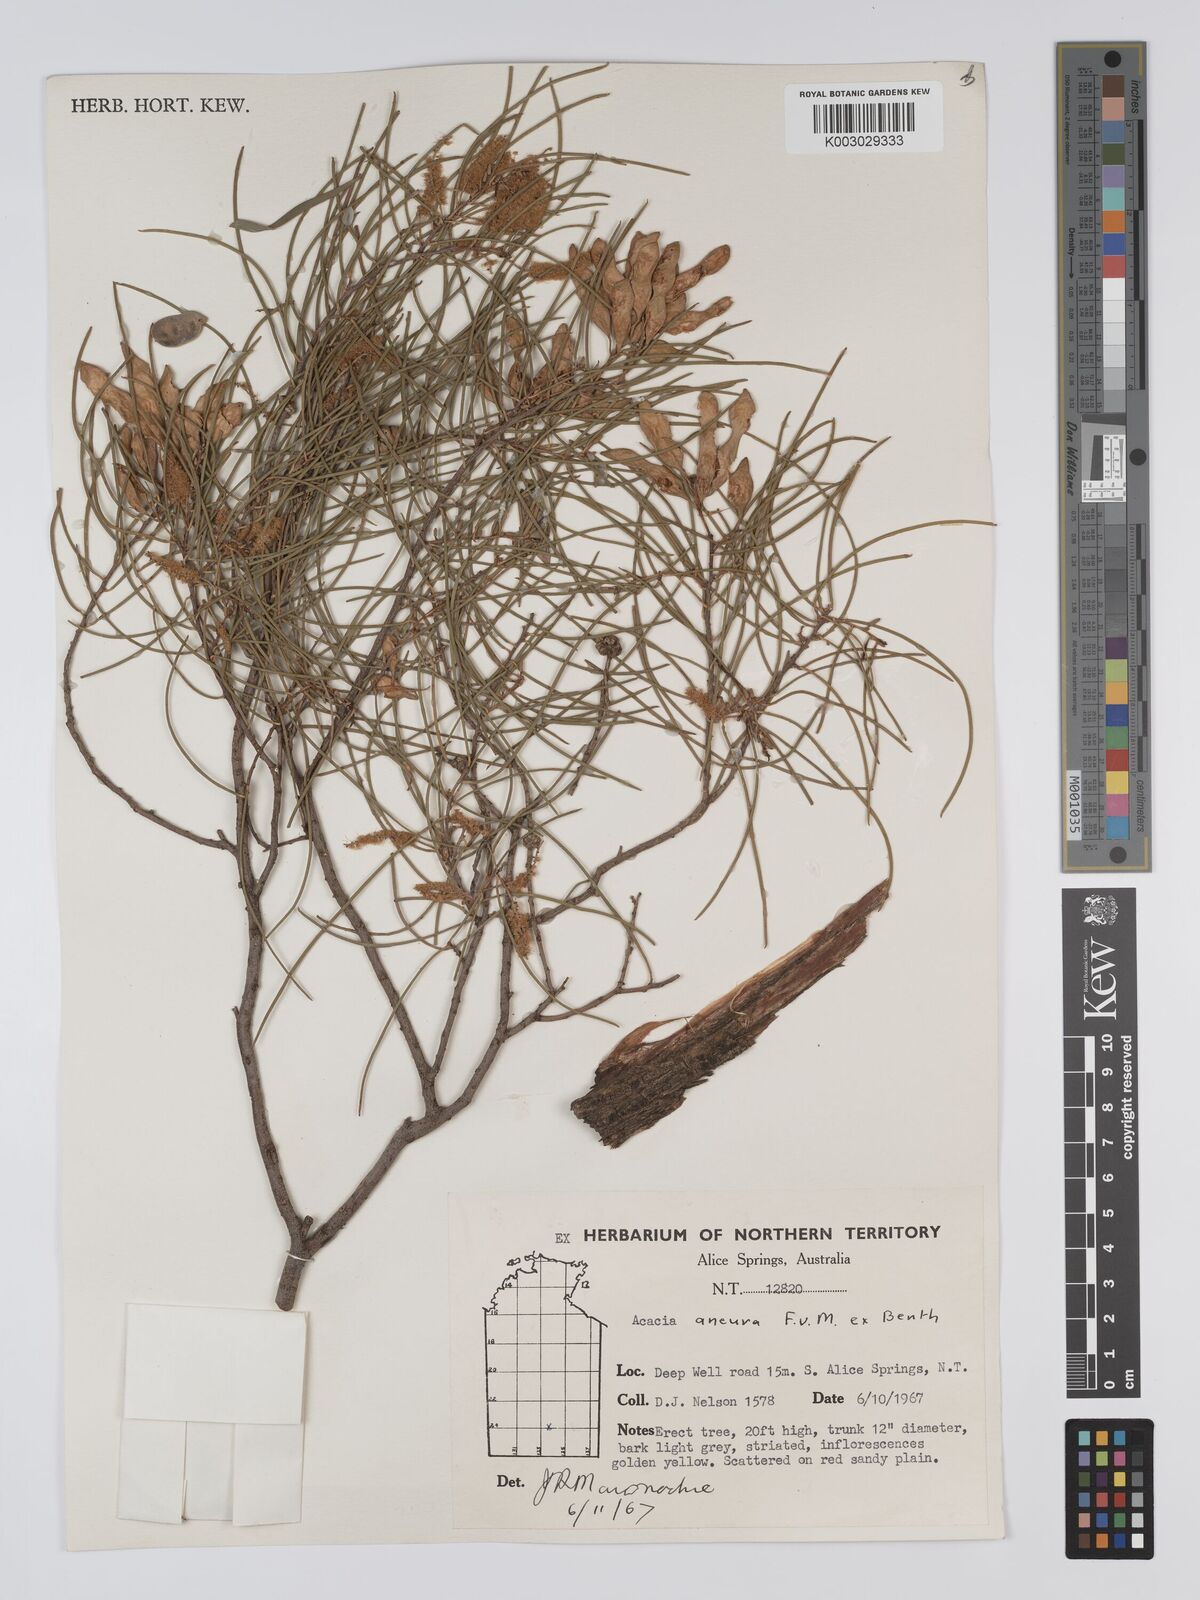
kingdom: Plantae
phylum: Tracheophyta
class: Magnoliopsida
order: Fabales
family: Fabaceae
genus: Acacia
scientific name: Acacia aneura
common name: Mulga
